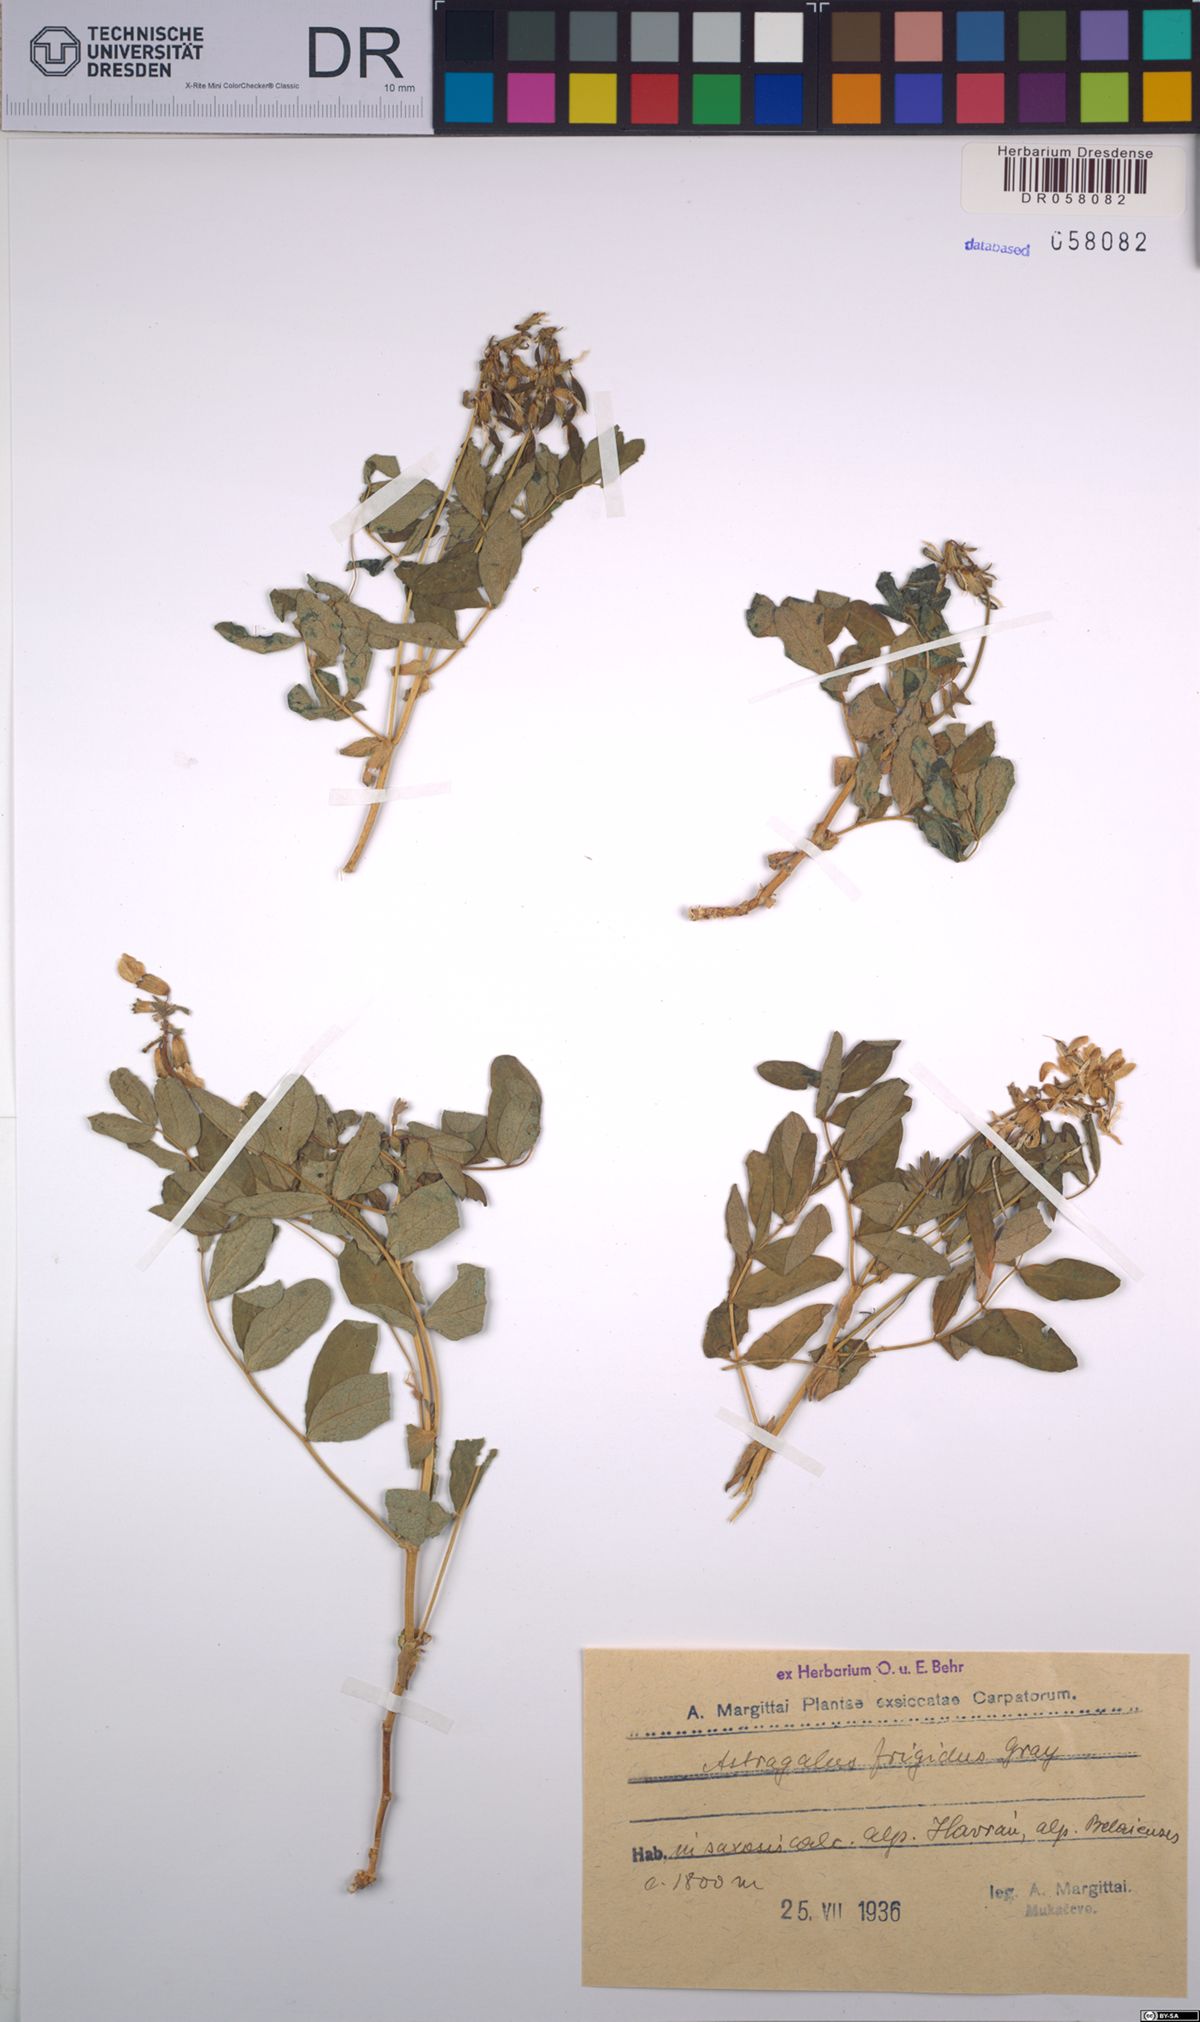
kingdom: Plantae
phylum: Tracheophyta
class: Magnoliopsida
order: Fabales
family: Fabaceae
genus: Astragalus
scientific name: Astragalus frigidus
